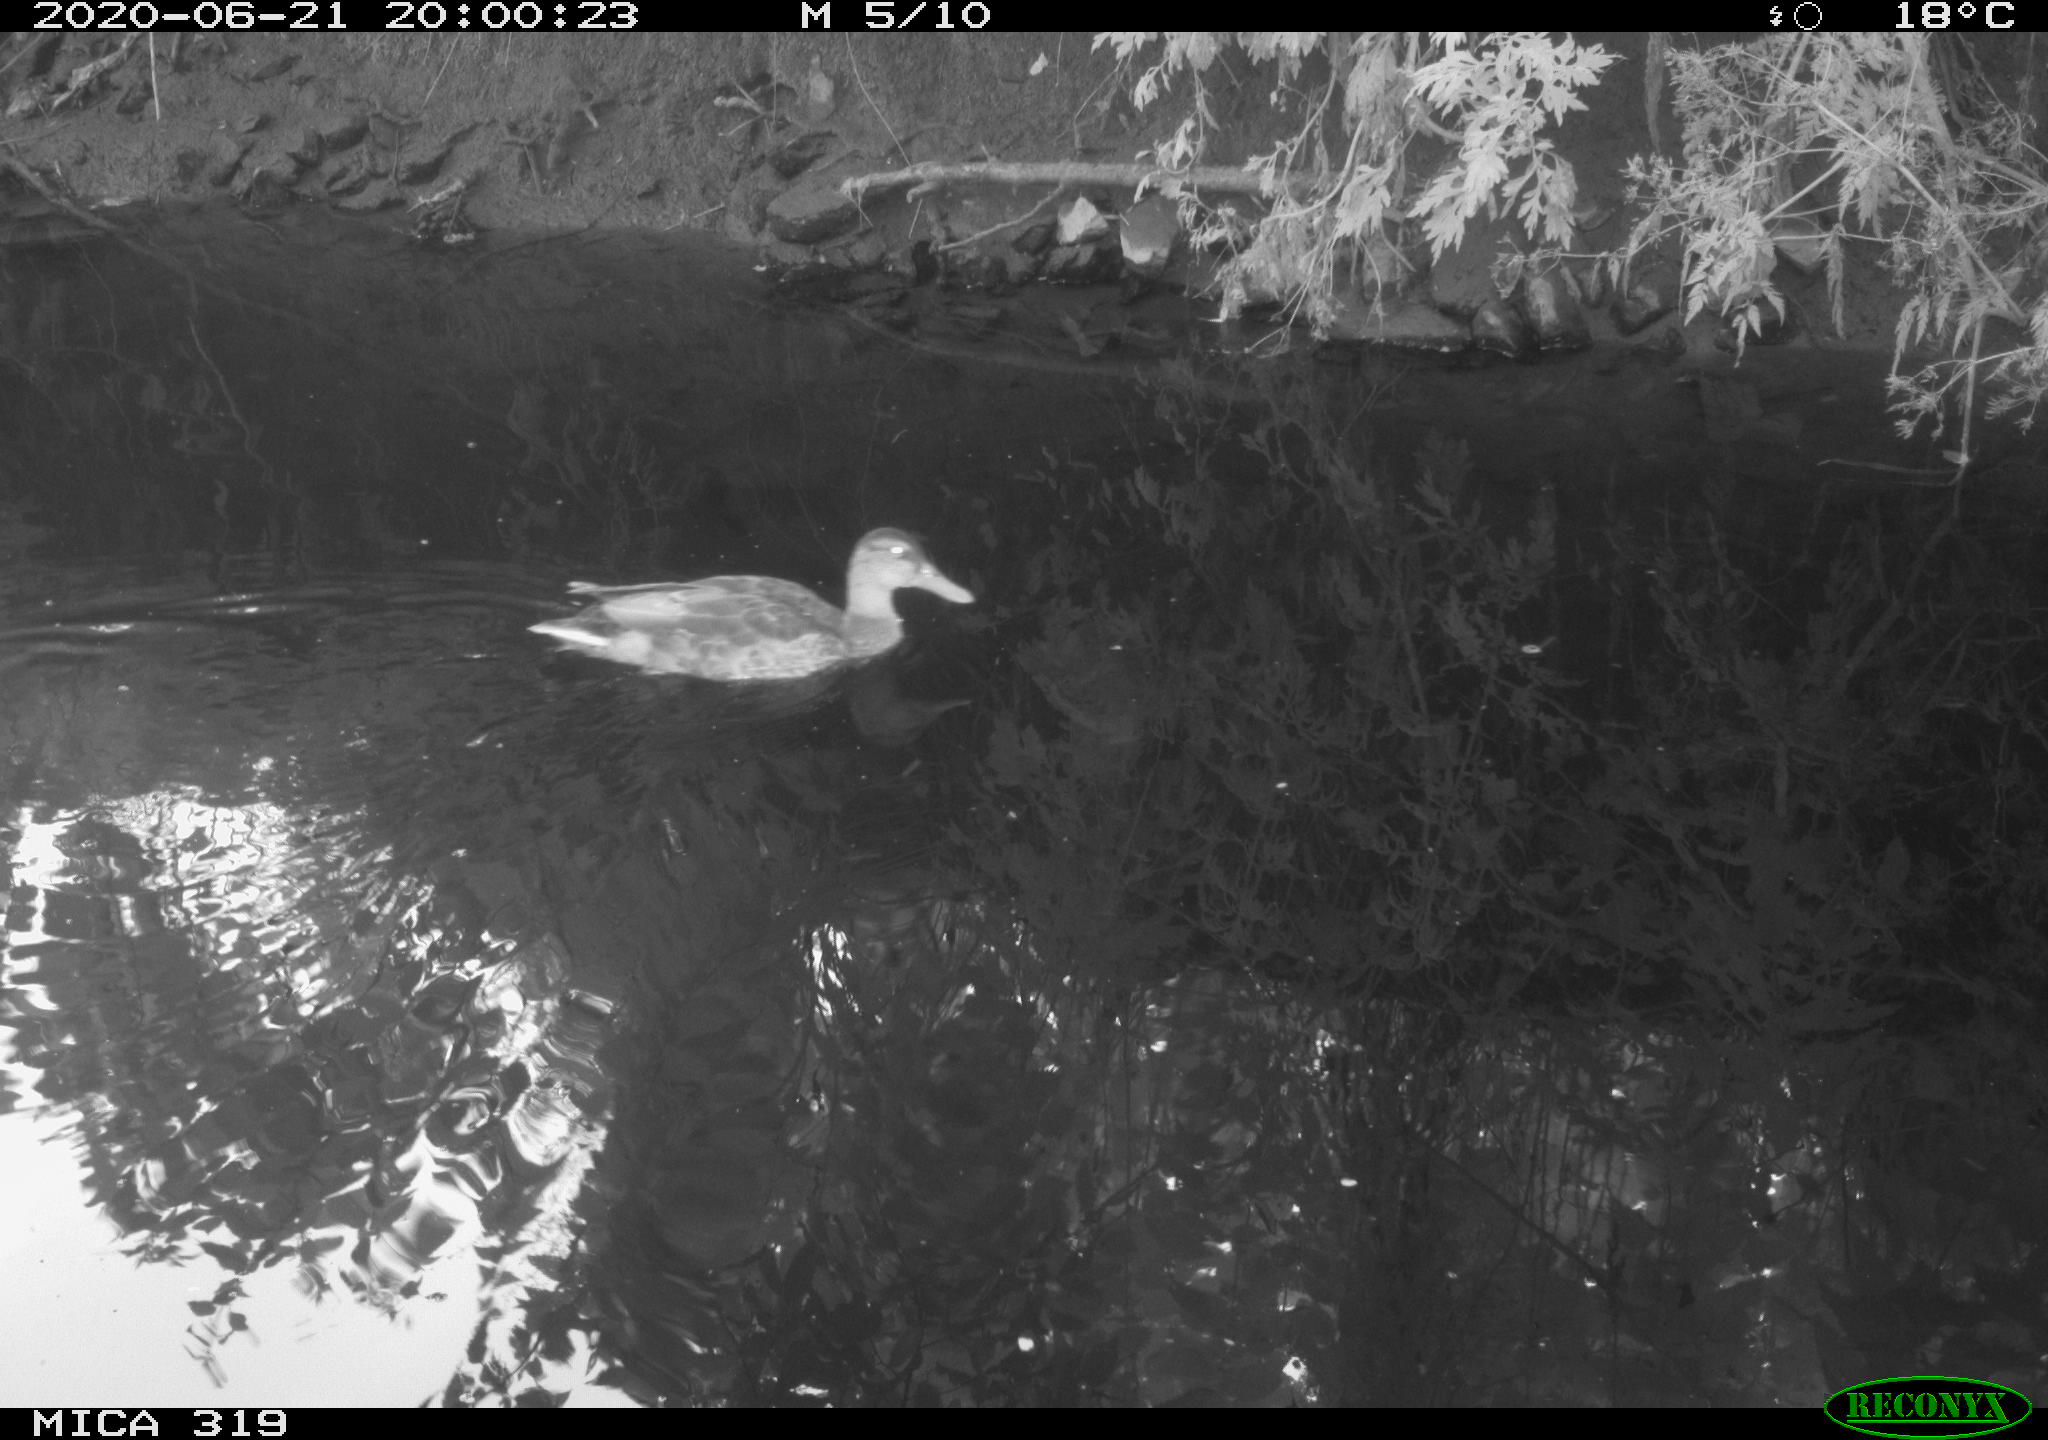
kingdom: Animalia
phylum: Chordata
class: Aves
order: Anseriformes
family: Anatidae
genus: Anas
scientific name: Anas platyrhynchos
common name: Mallard
